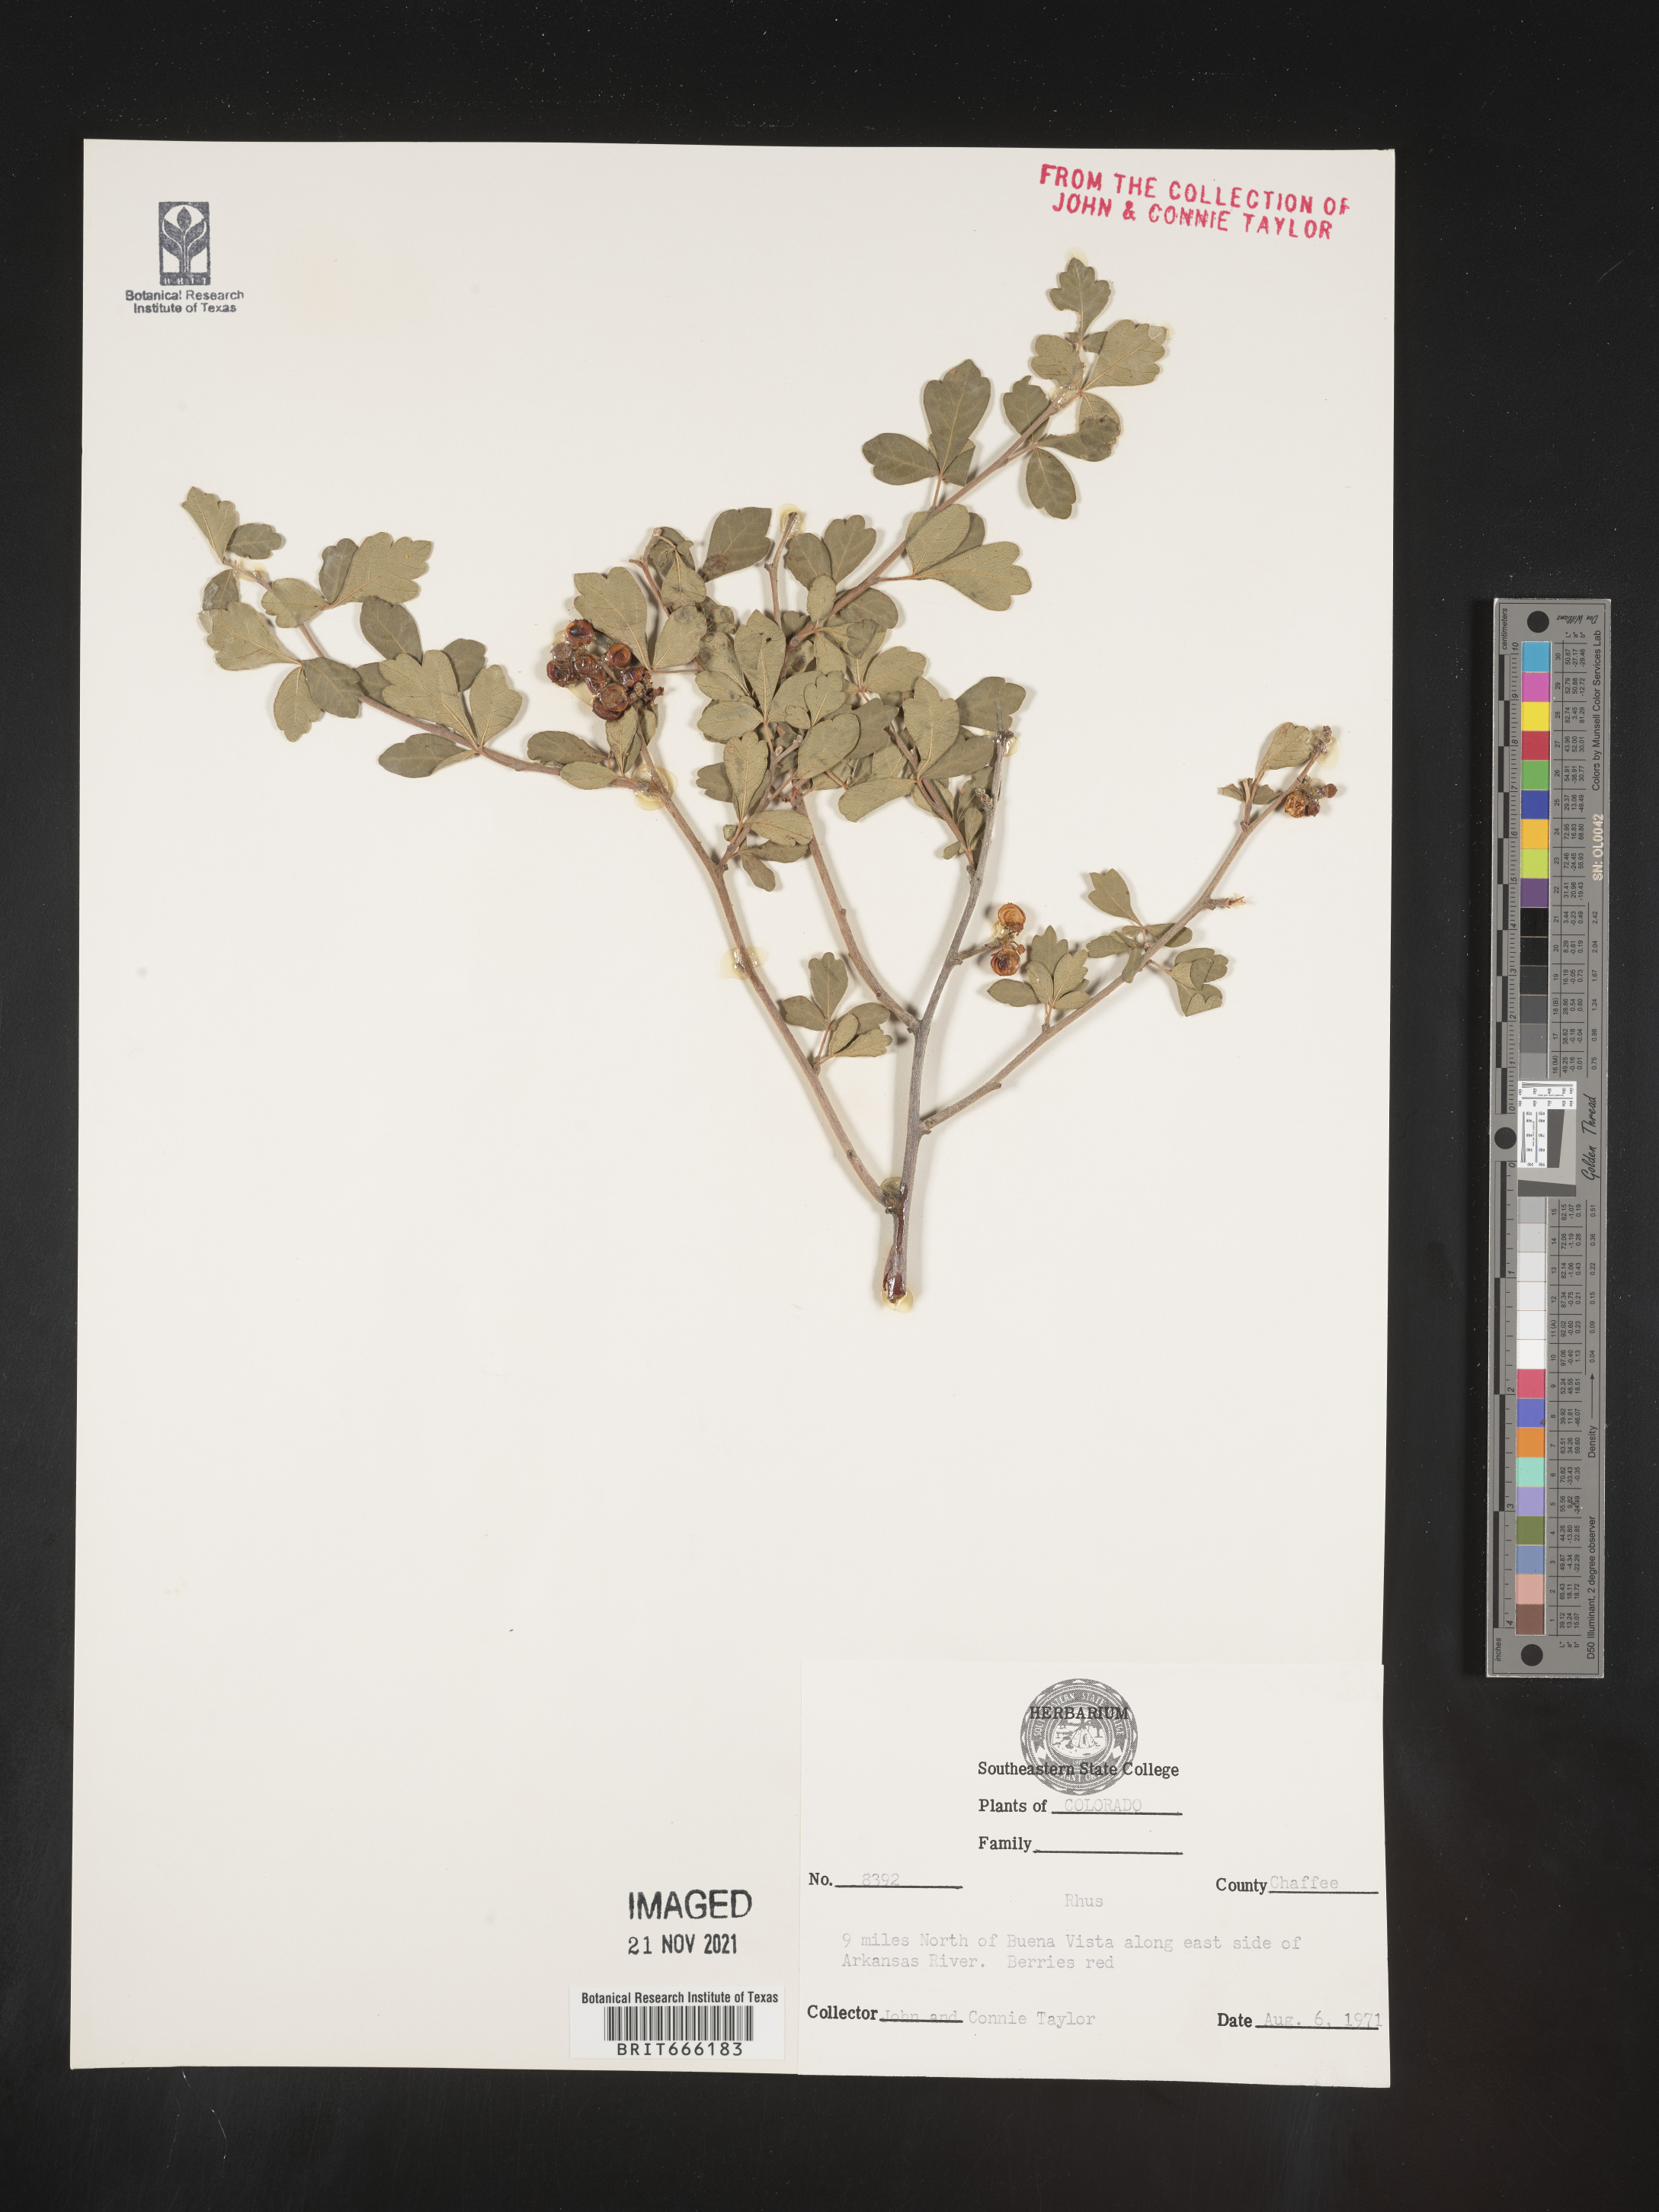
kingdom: Plantae
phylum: Tracheophyta
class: Magnoliopsida
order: Sapindales
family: Anacardiaceae
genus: Rhus
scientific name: Rhus trilobata
